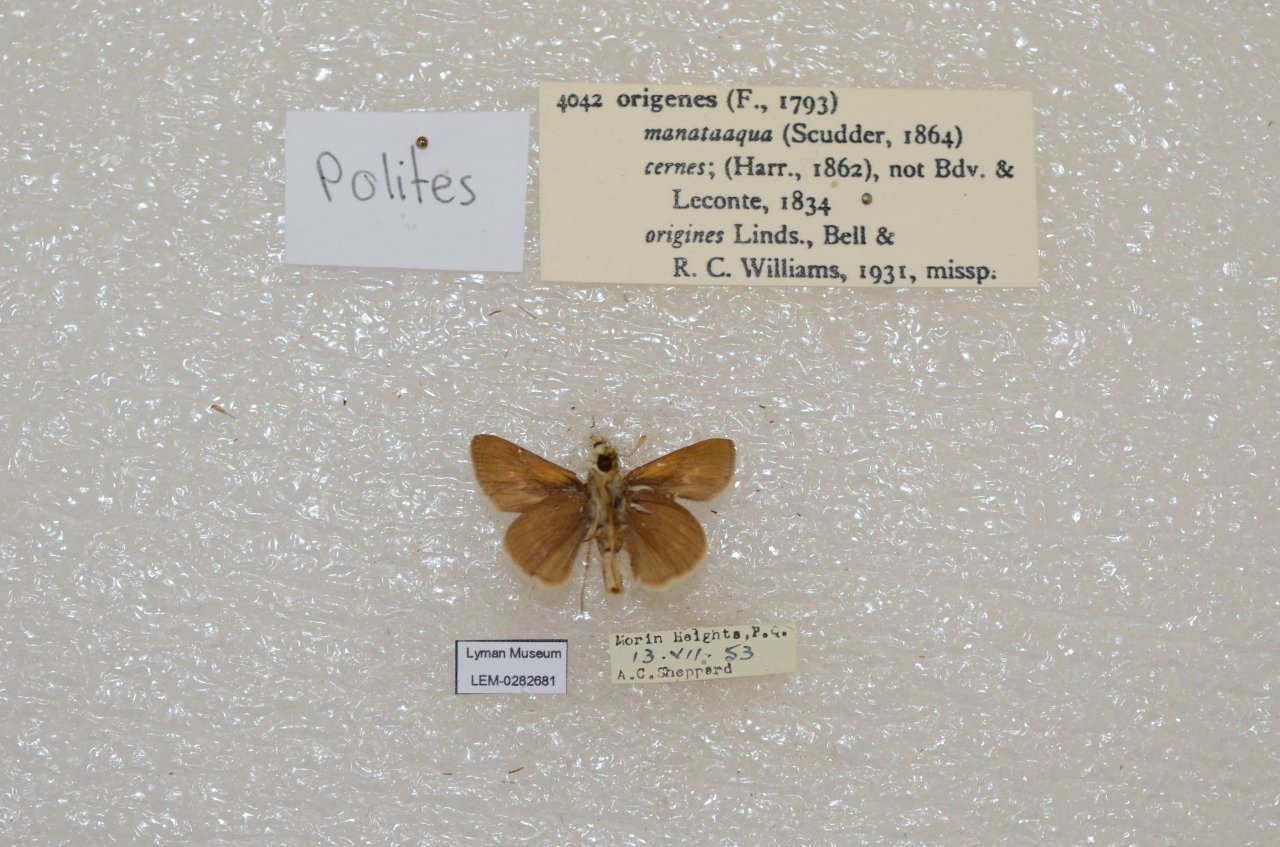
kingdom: Animalia
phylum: Arthropoda
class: Insecta
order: Lepidoptera
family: Hesperiidae
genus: Polites
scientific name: Polites
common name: Crossline Skipper
